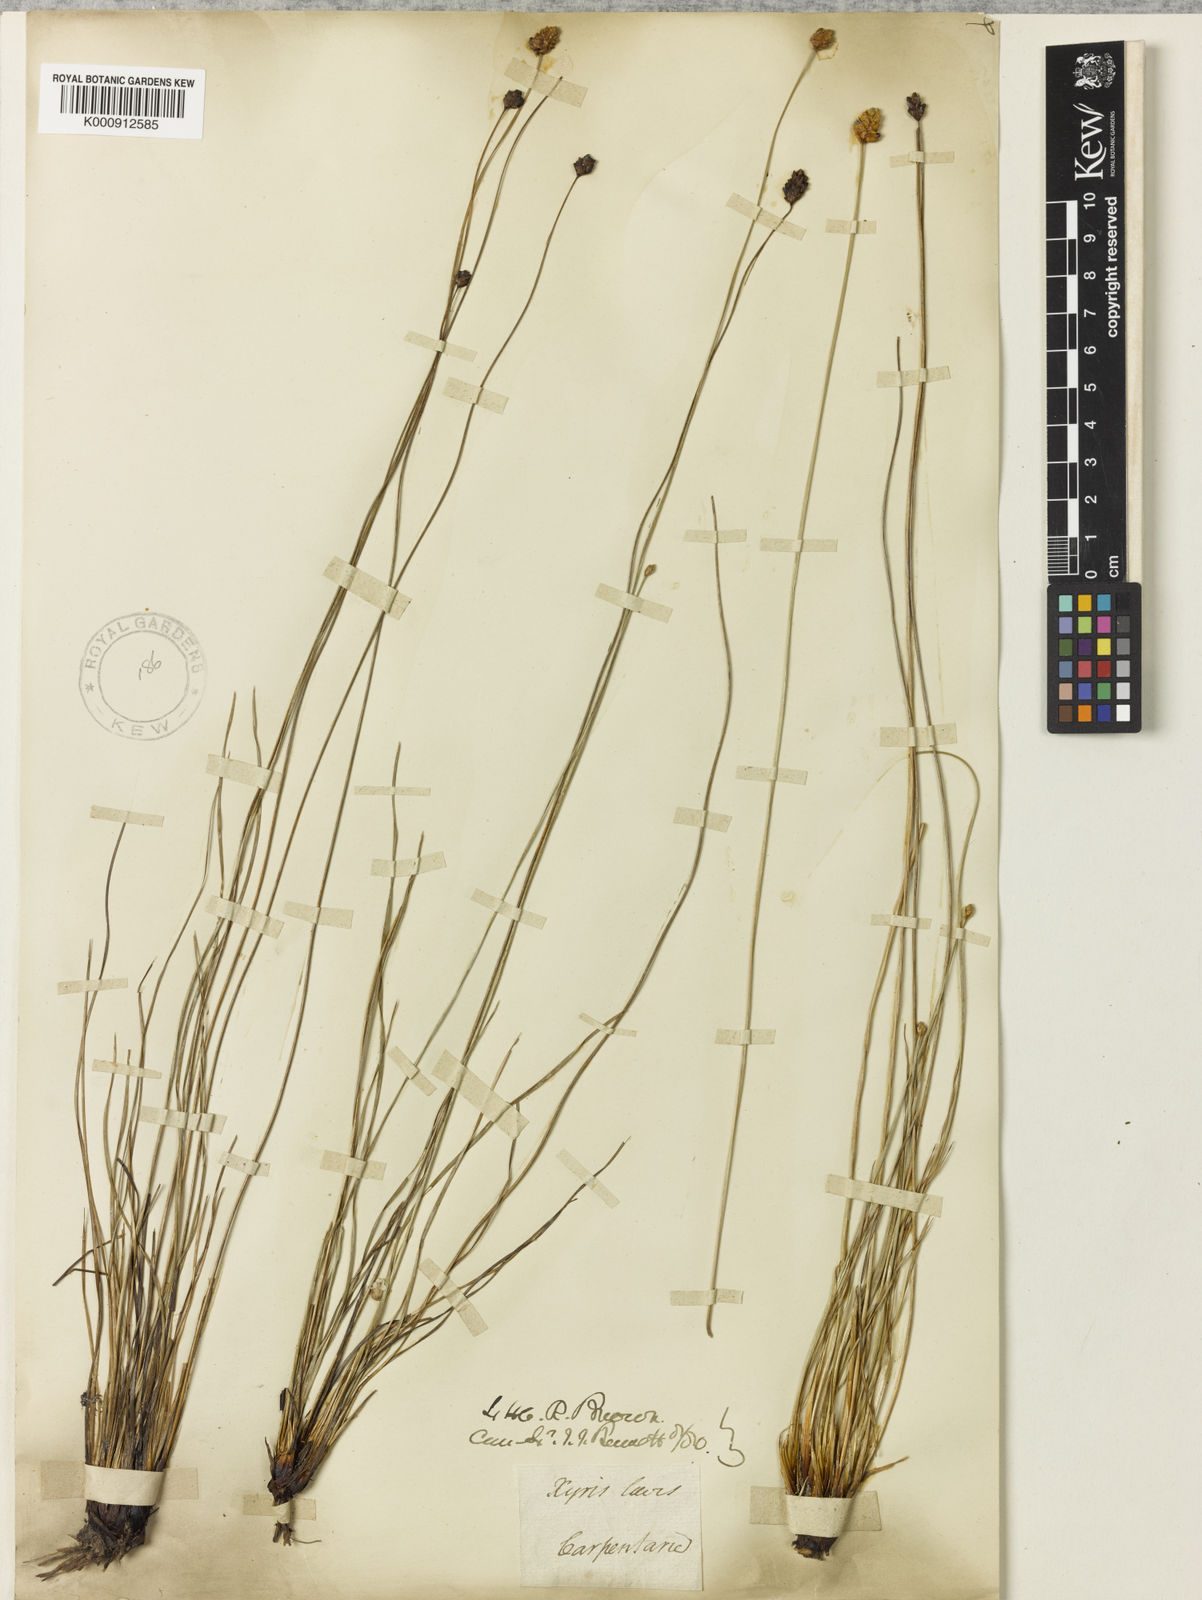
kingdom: Plantae
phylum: Tracheophyta
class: Liliopsida
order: Poales
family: Xyridaceae
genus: Xyris
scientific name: Xyris complanata
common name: Hawai'i yelloweyed grass
